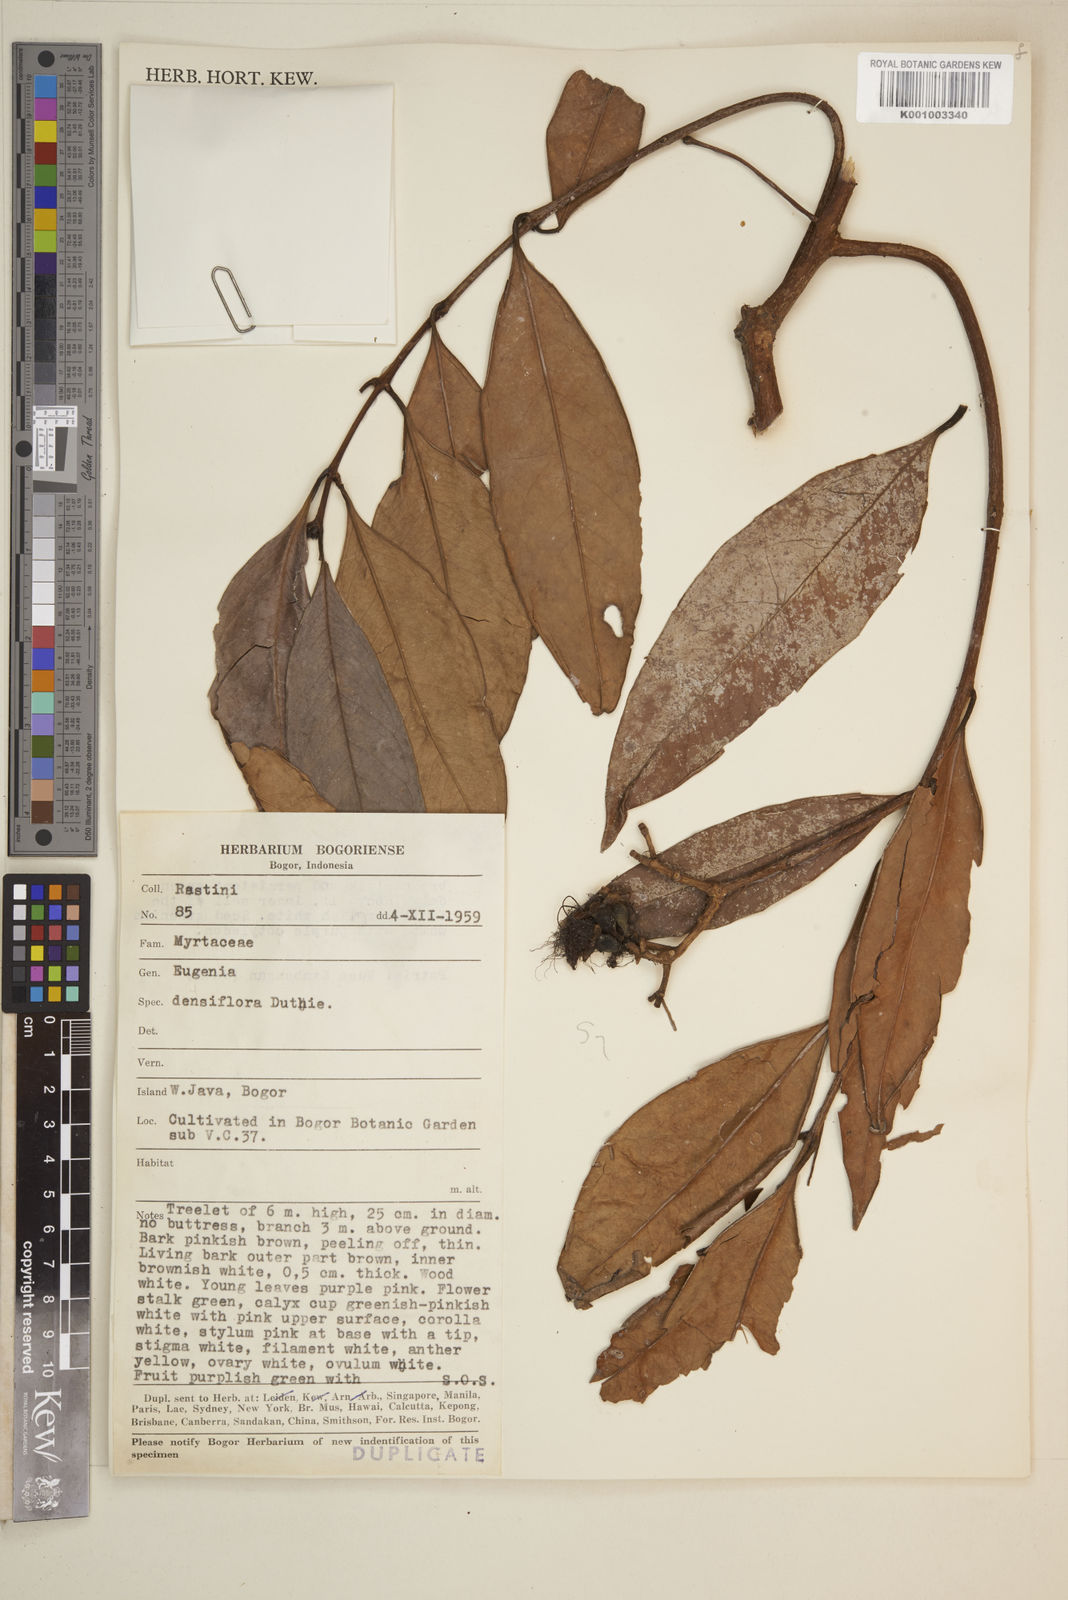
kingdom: Plantae
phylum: Tracheophyta
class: Magnoliopsida
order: Myrtales
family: Myrtaceae
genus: Eugenia
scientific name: Eugenia
